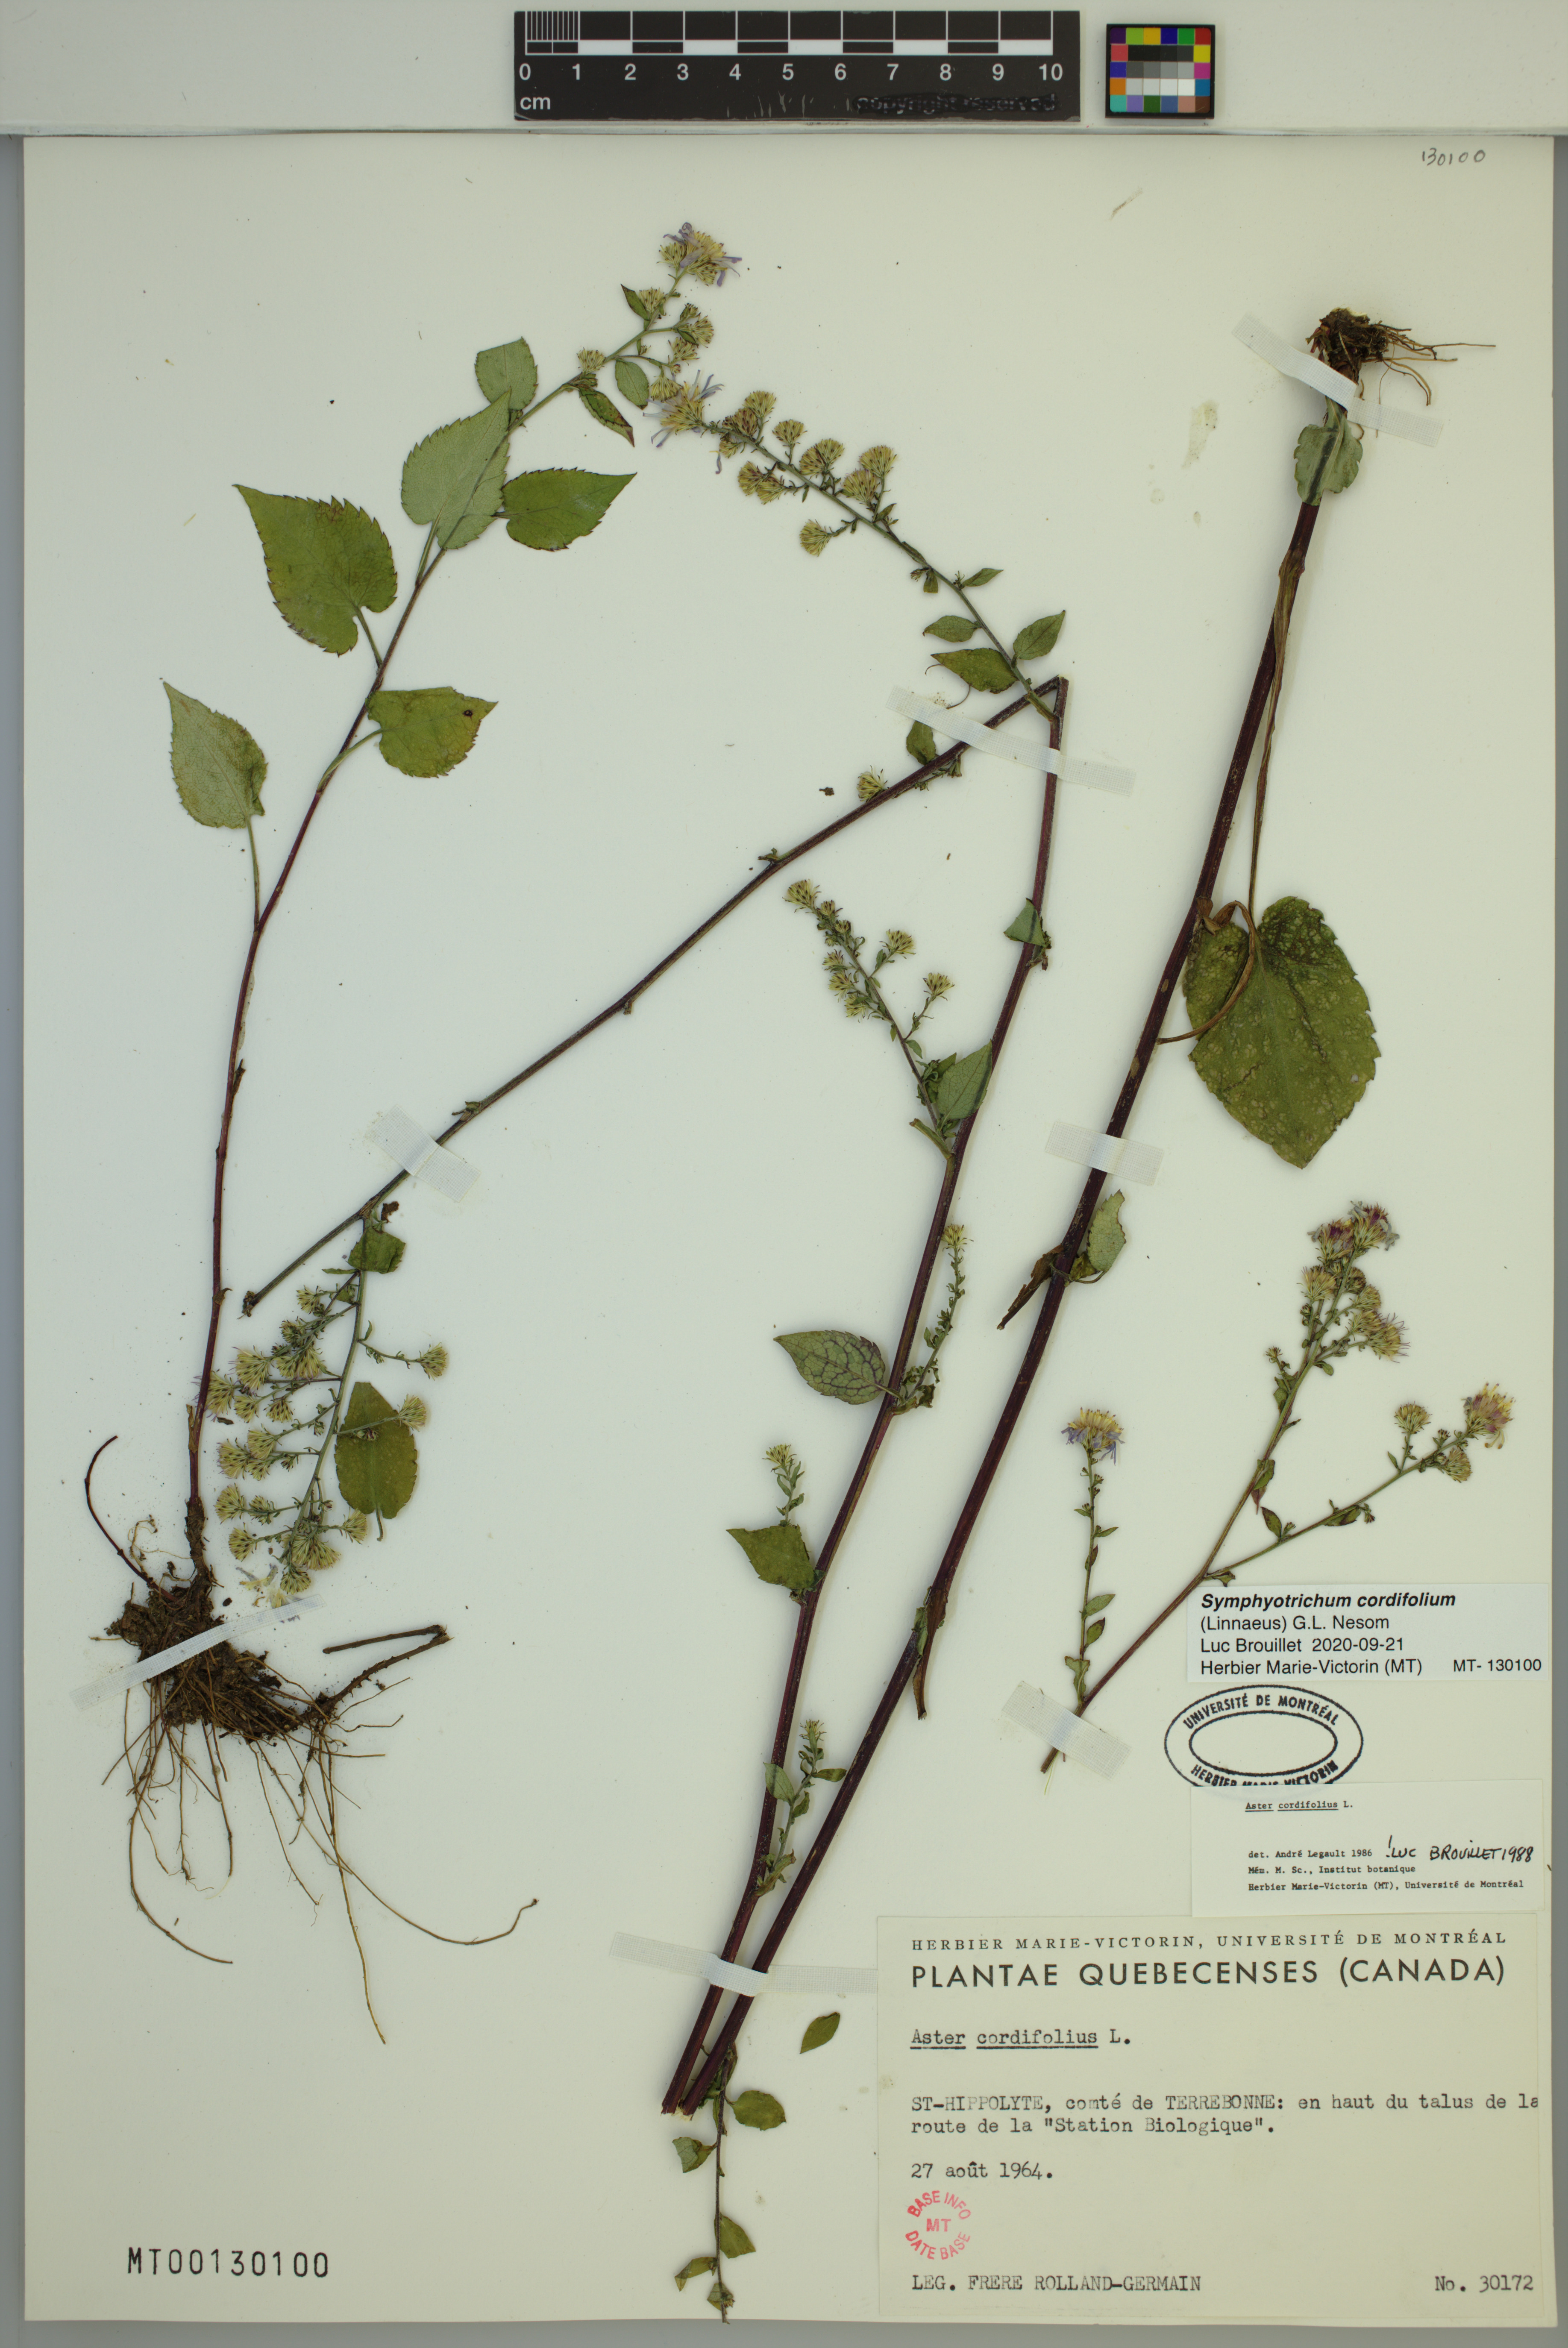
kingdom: Plantae
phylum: Tracheophyta
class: Magnoliopsida
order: Asterales
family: Asteraceae
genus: Symphyotrichum
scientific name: Symphyotrichum cordifolium
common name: Beeweed
